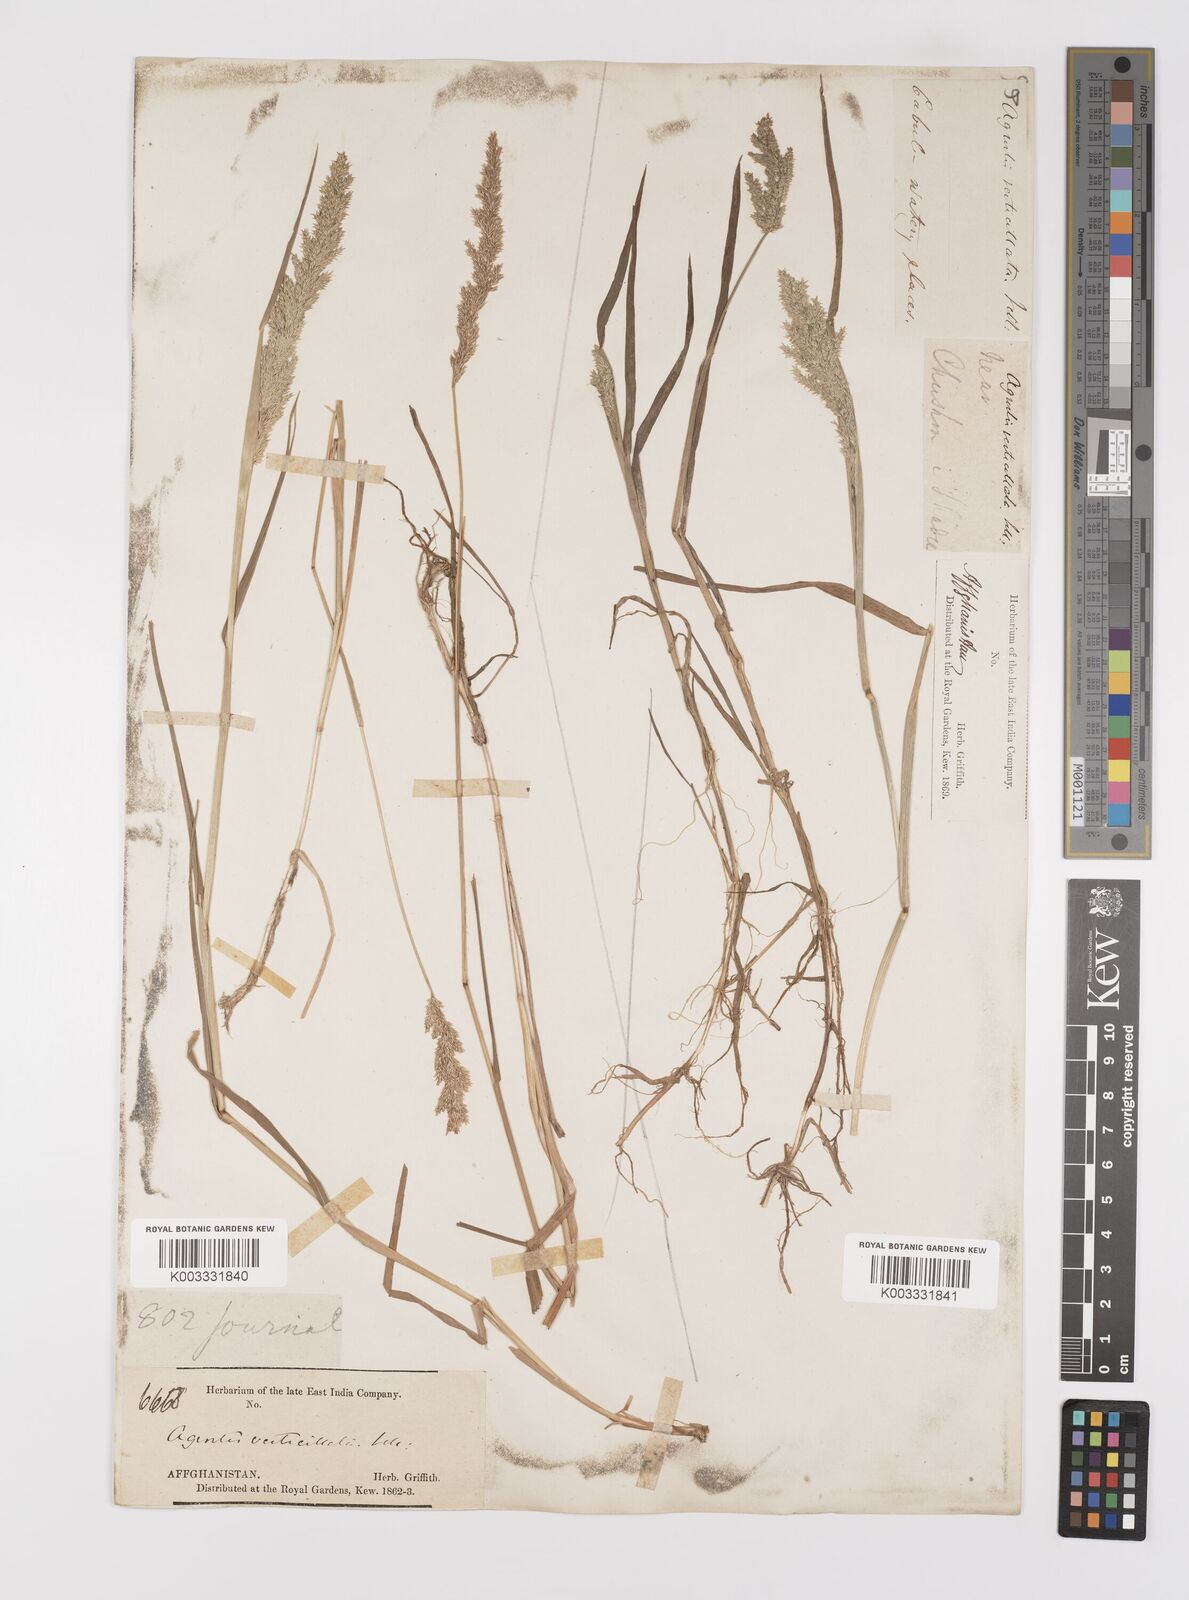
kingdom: Plantae
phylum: Tracheophyta
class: Liliopsida
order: Poales
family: Poaceae
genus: Polypogon
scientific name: Polypogon viridis
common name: Water bent
